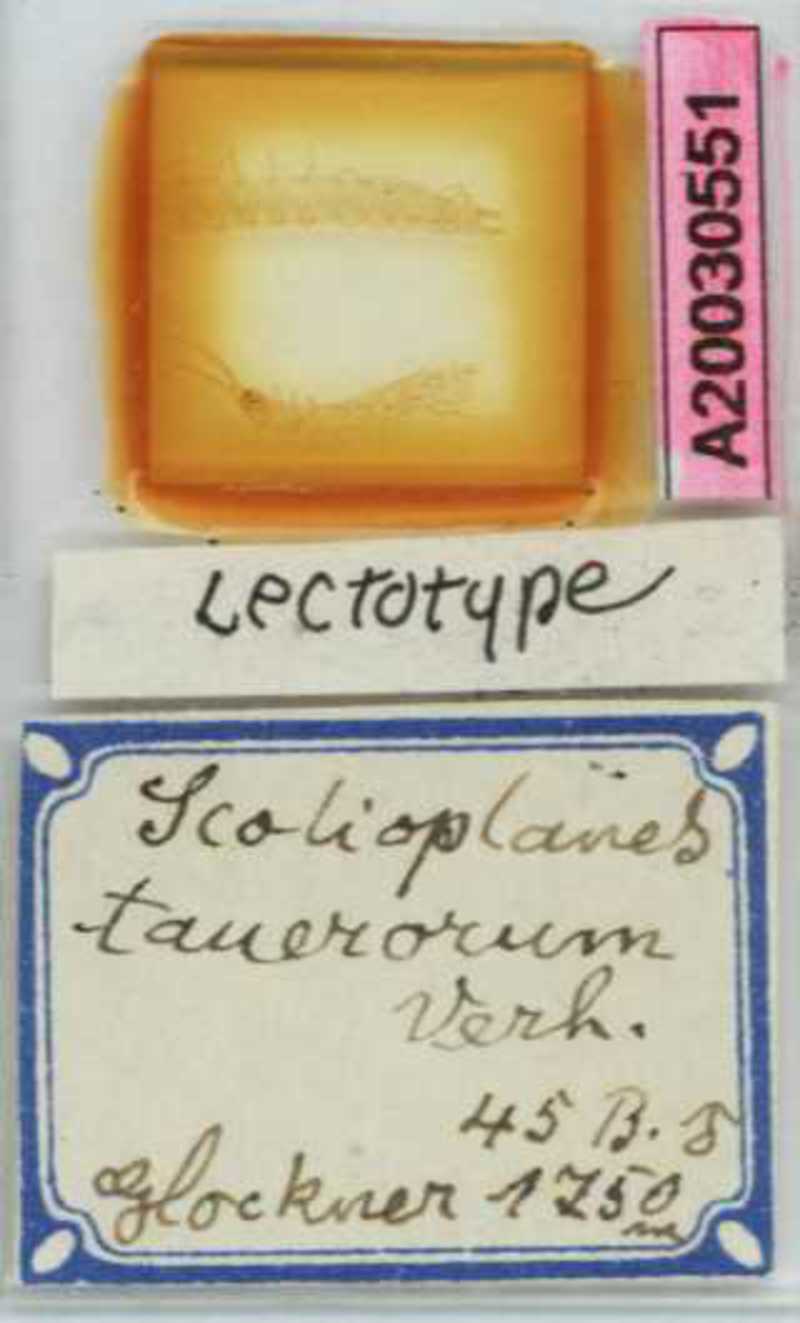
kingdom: Animalia
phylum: Arthropoda
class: Chilopoda
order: Geophilomorpha
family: Linotaeniidae
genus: Strigamia
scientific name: Strigamia crassipes
